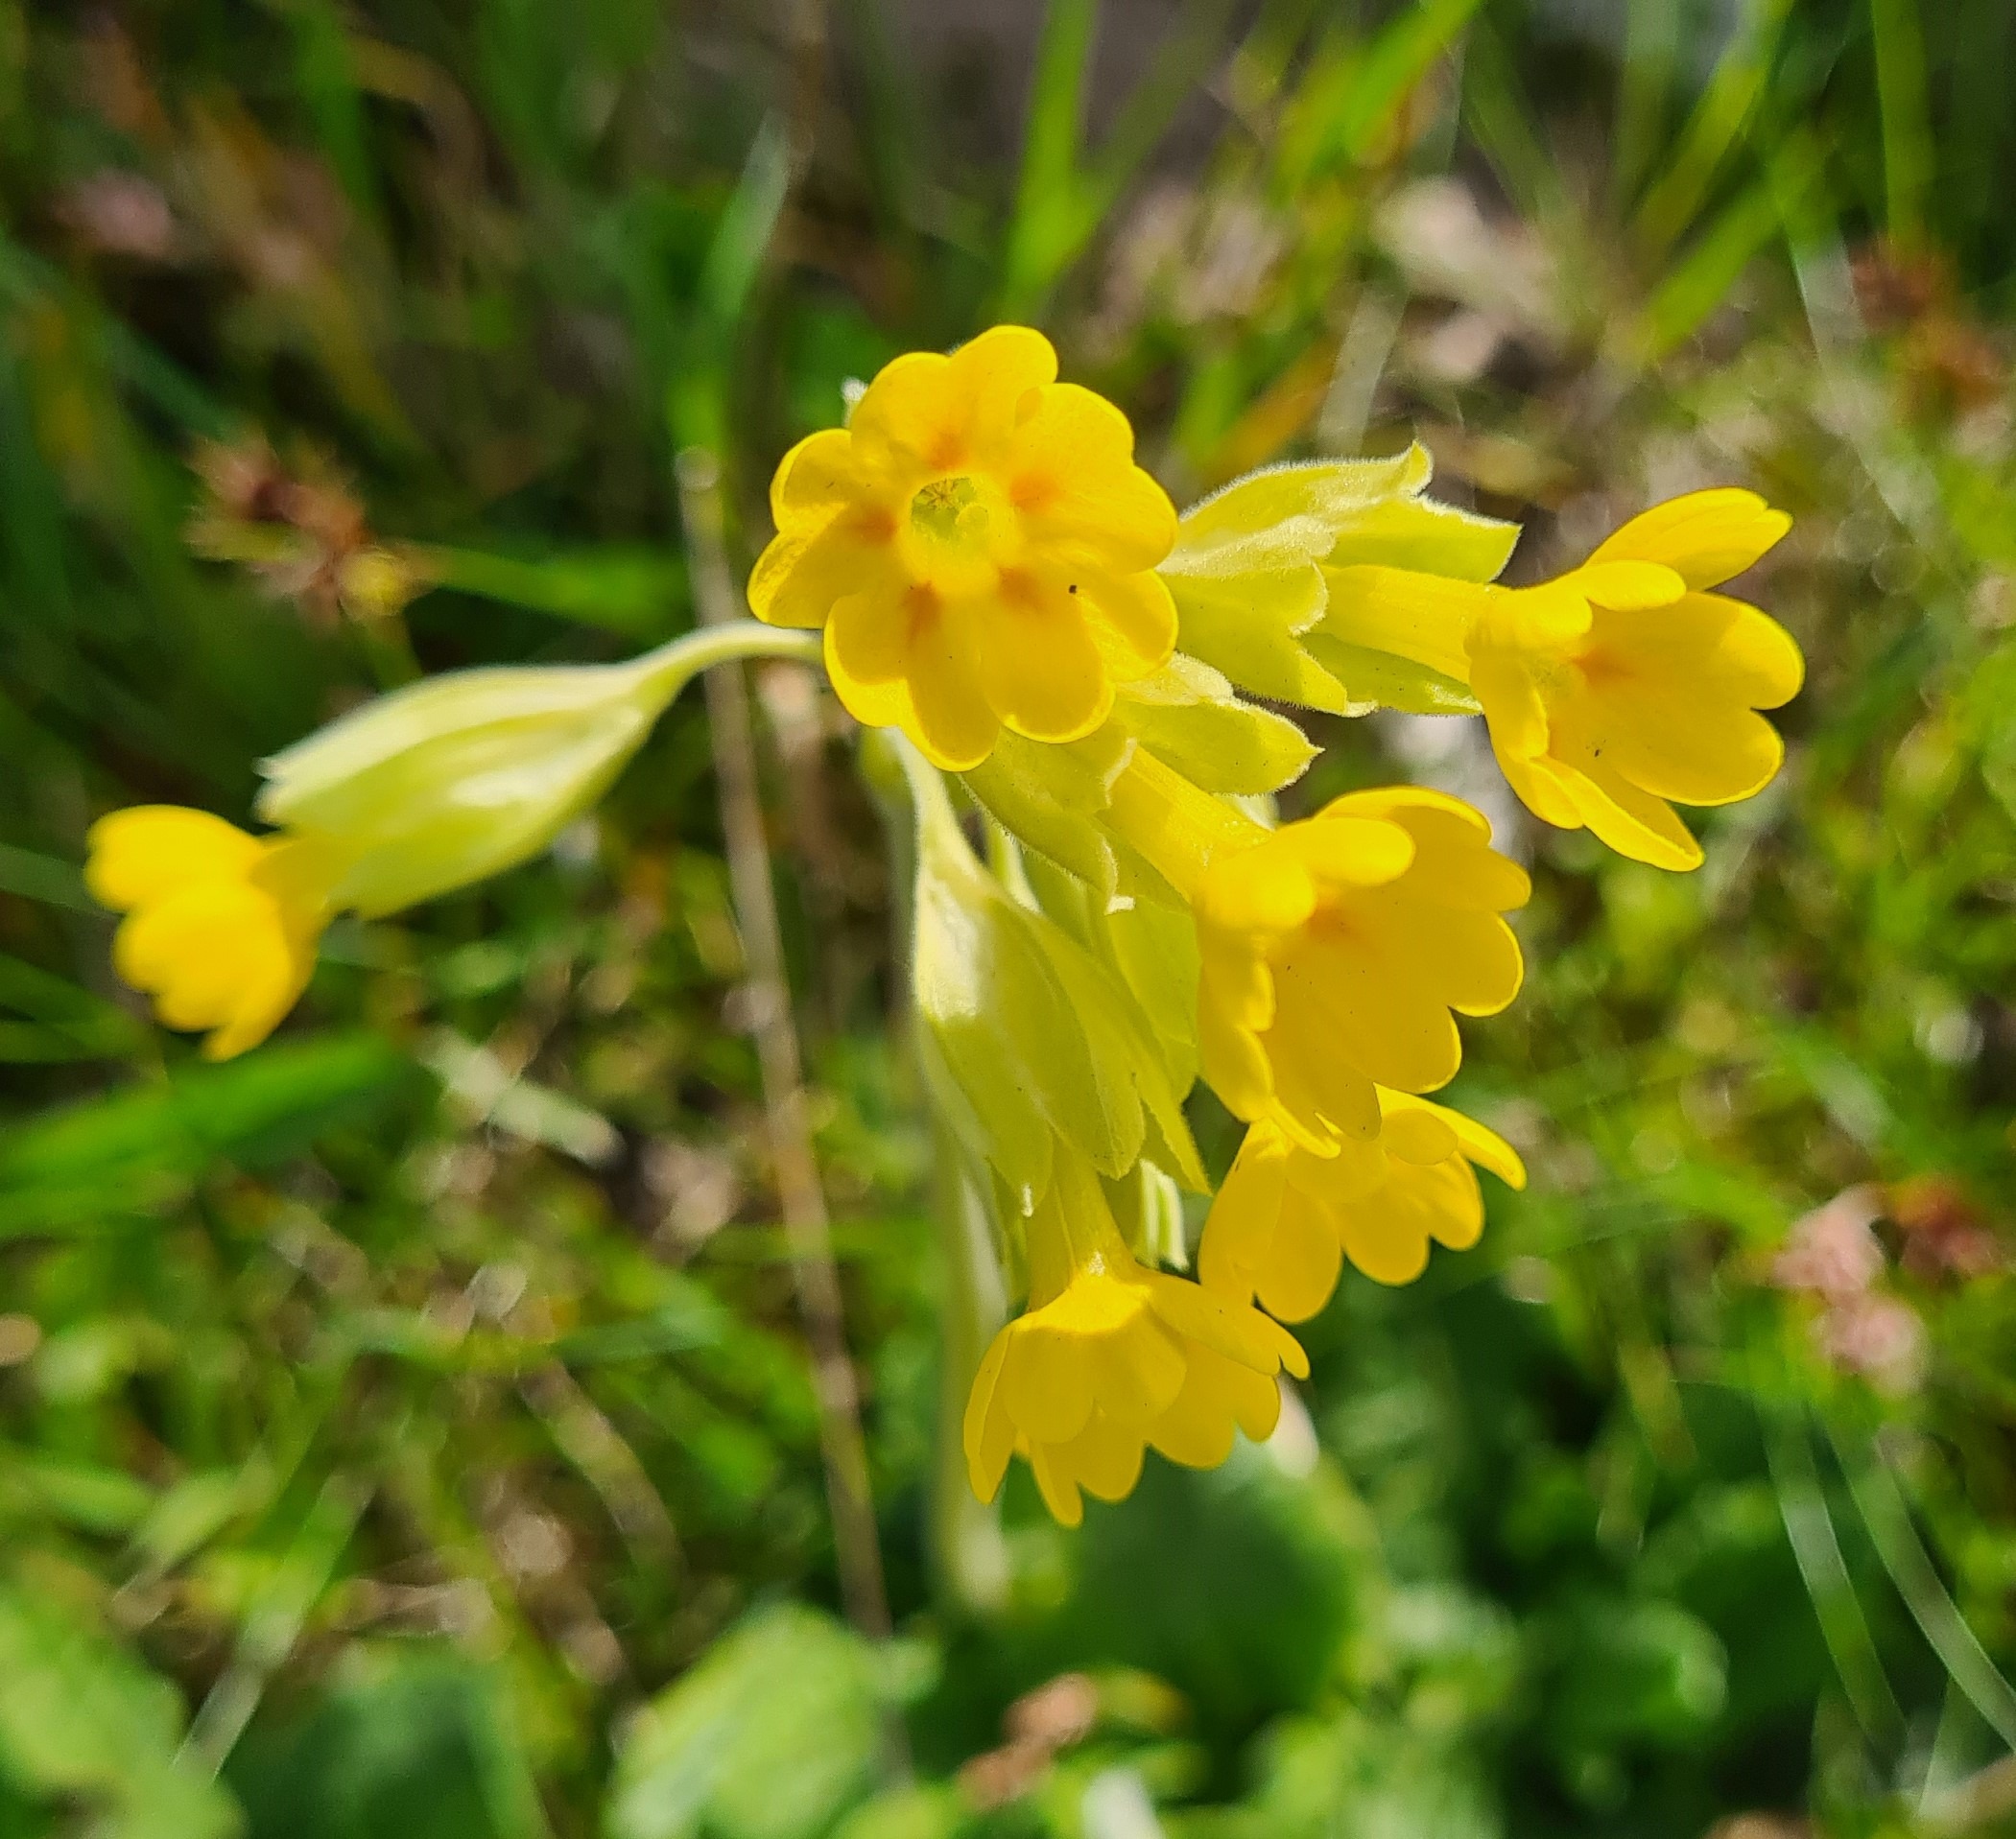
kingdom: Plantae
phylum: Tracheophyta
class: Magnoliopsida
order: Ericales
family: Primulaceae
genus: Primula
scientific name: Primula veris
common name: Hulkravet kodriver
